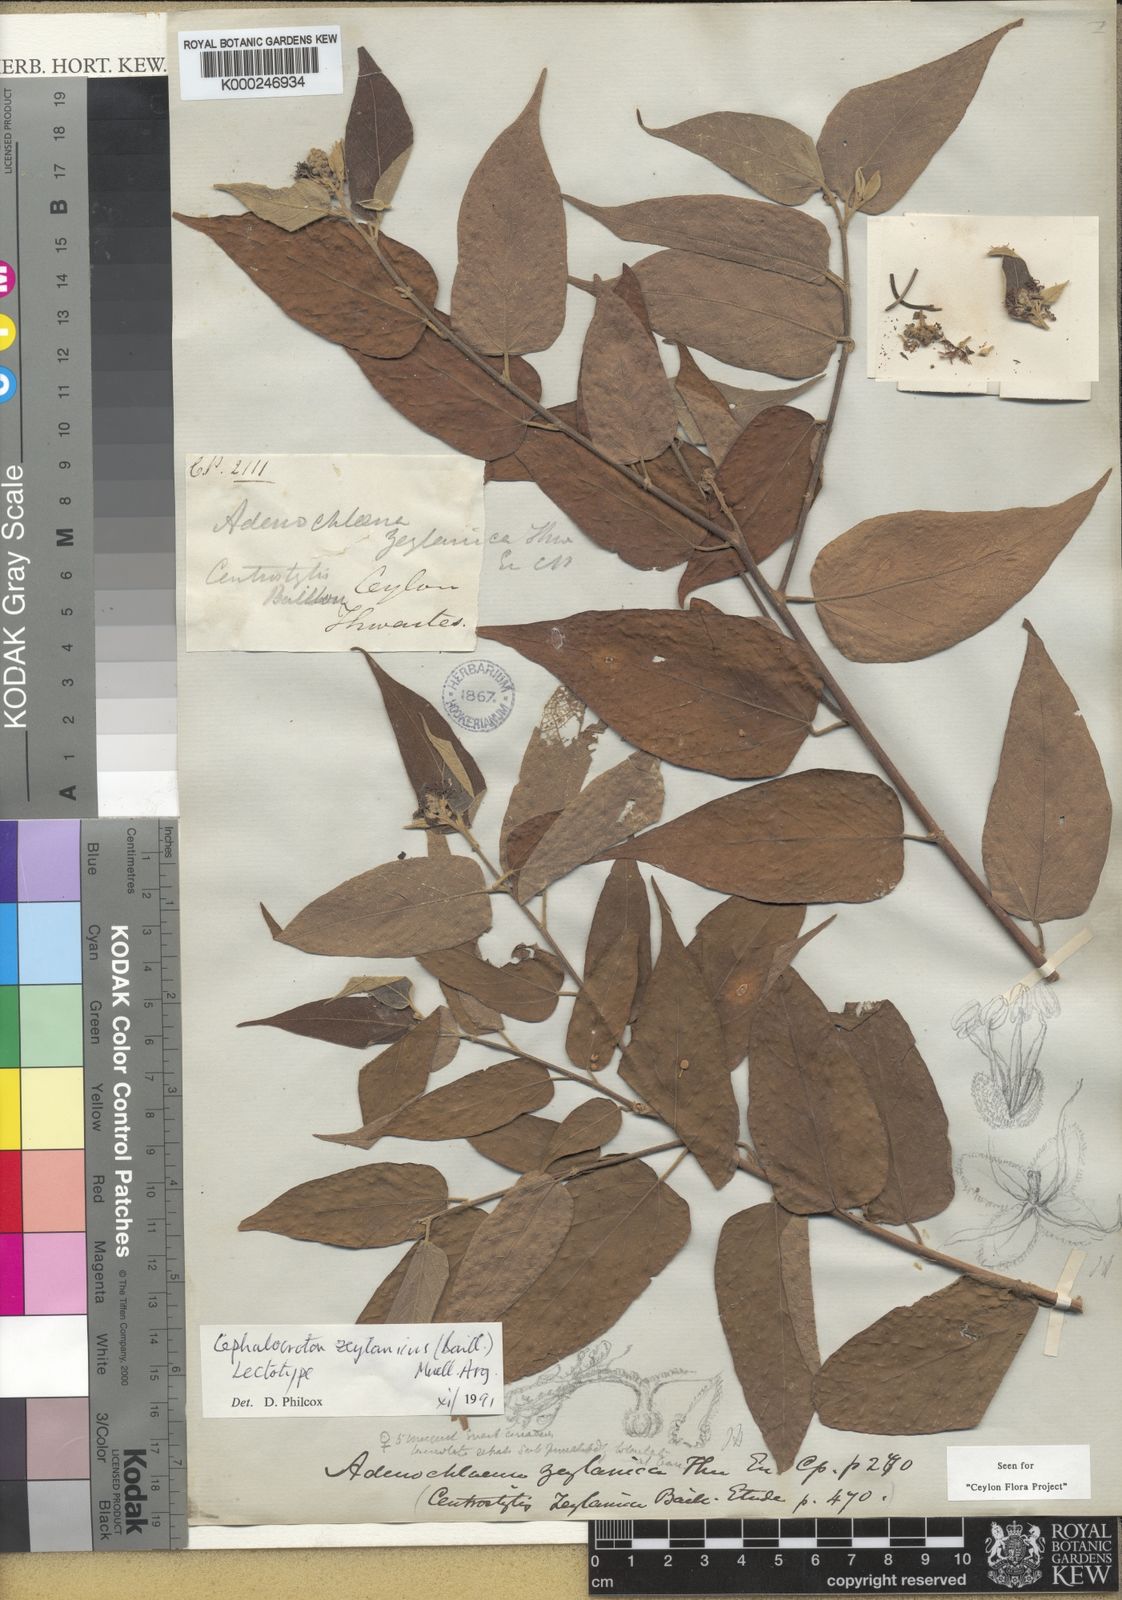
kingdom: Plantae
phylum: Tracheophyta
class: Magnoliopsida
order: Malpighiales
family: Euphorbiaceae
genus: Adenochlaena
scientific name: Adenochlaena zeylanica
